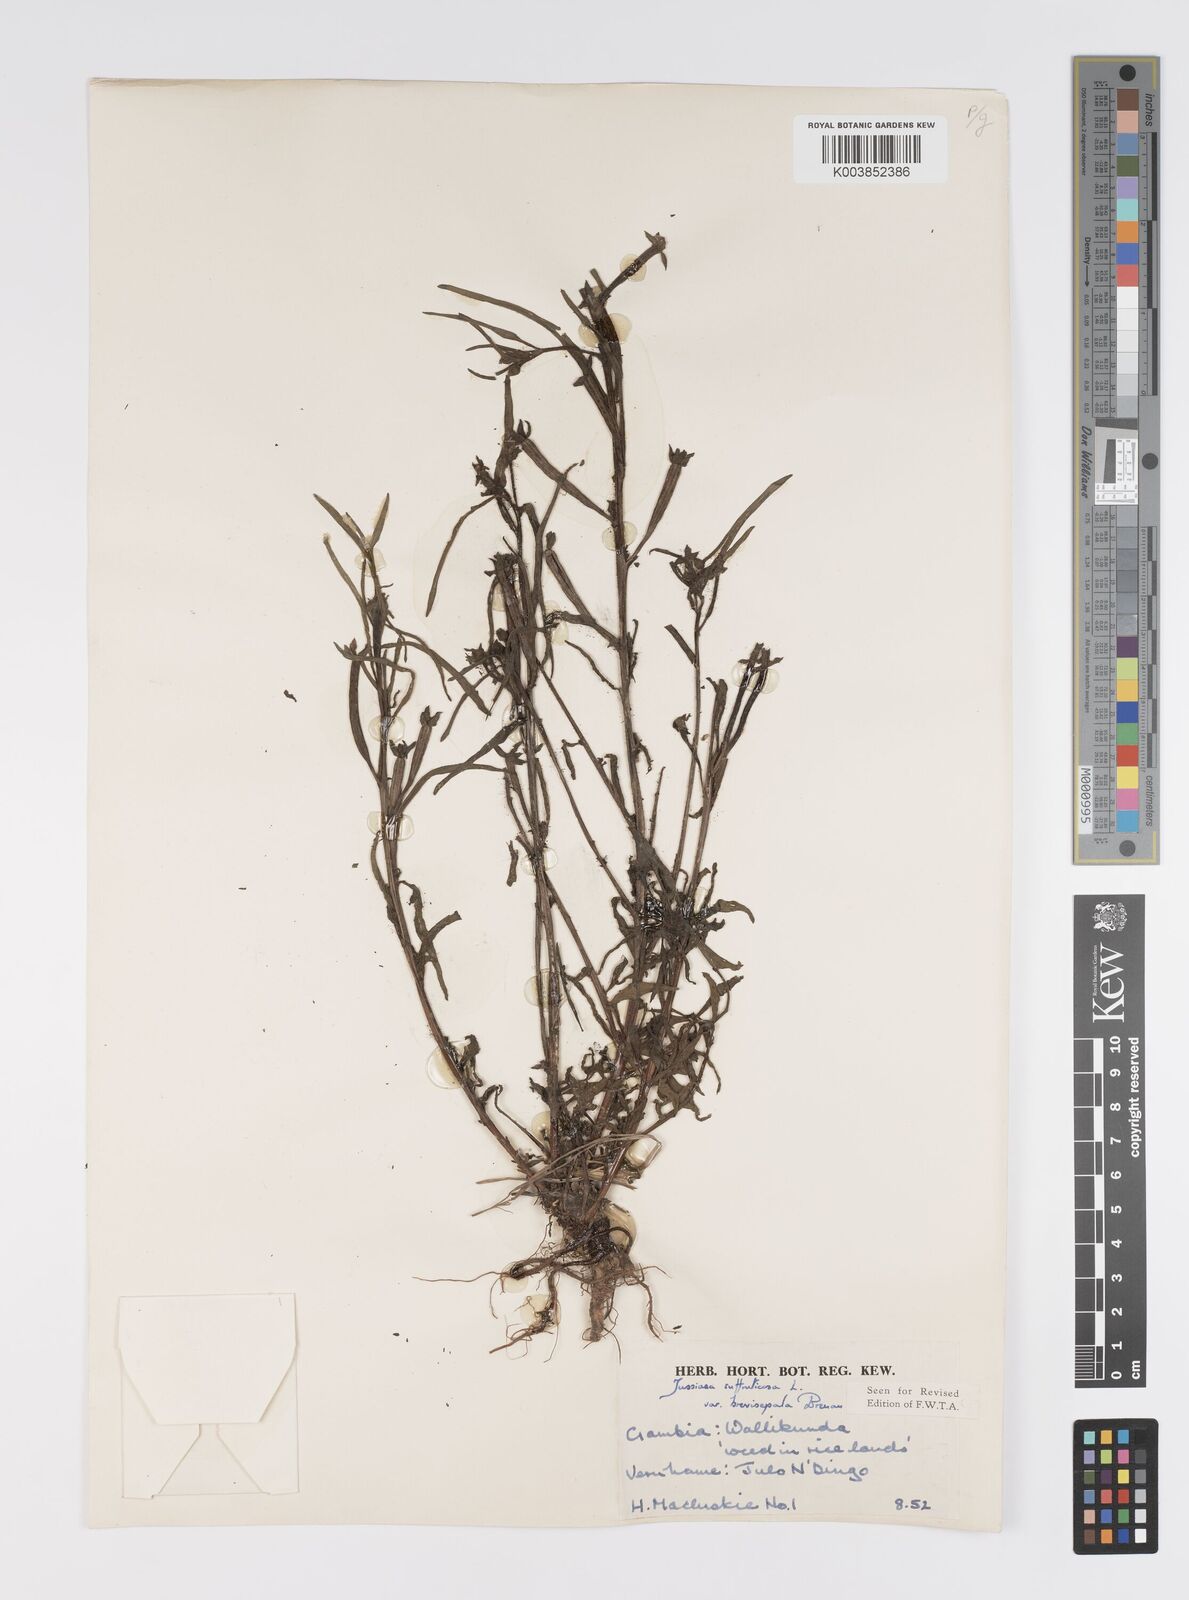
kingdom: Plantae
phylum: Tracheophyta
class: Magnoliopsida
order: Myrtales
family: Onagraceae
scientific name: Onagraceae
